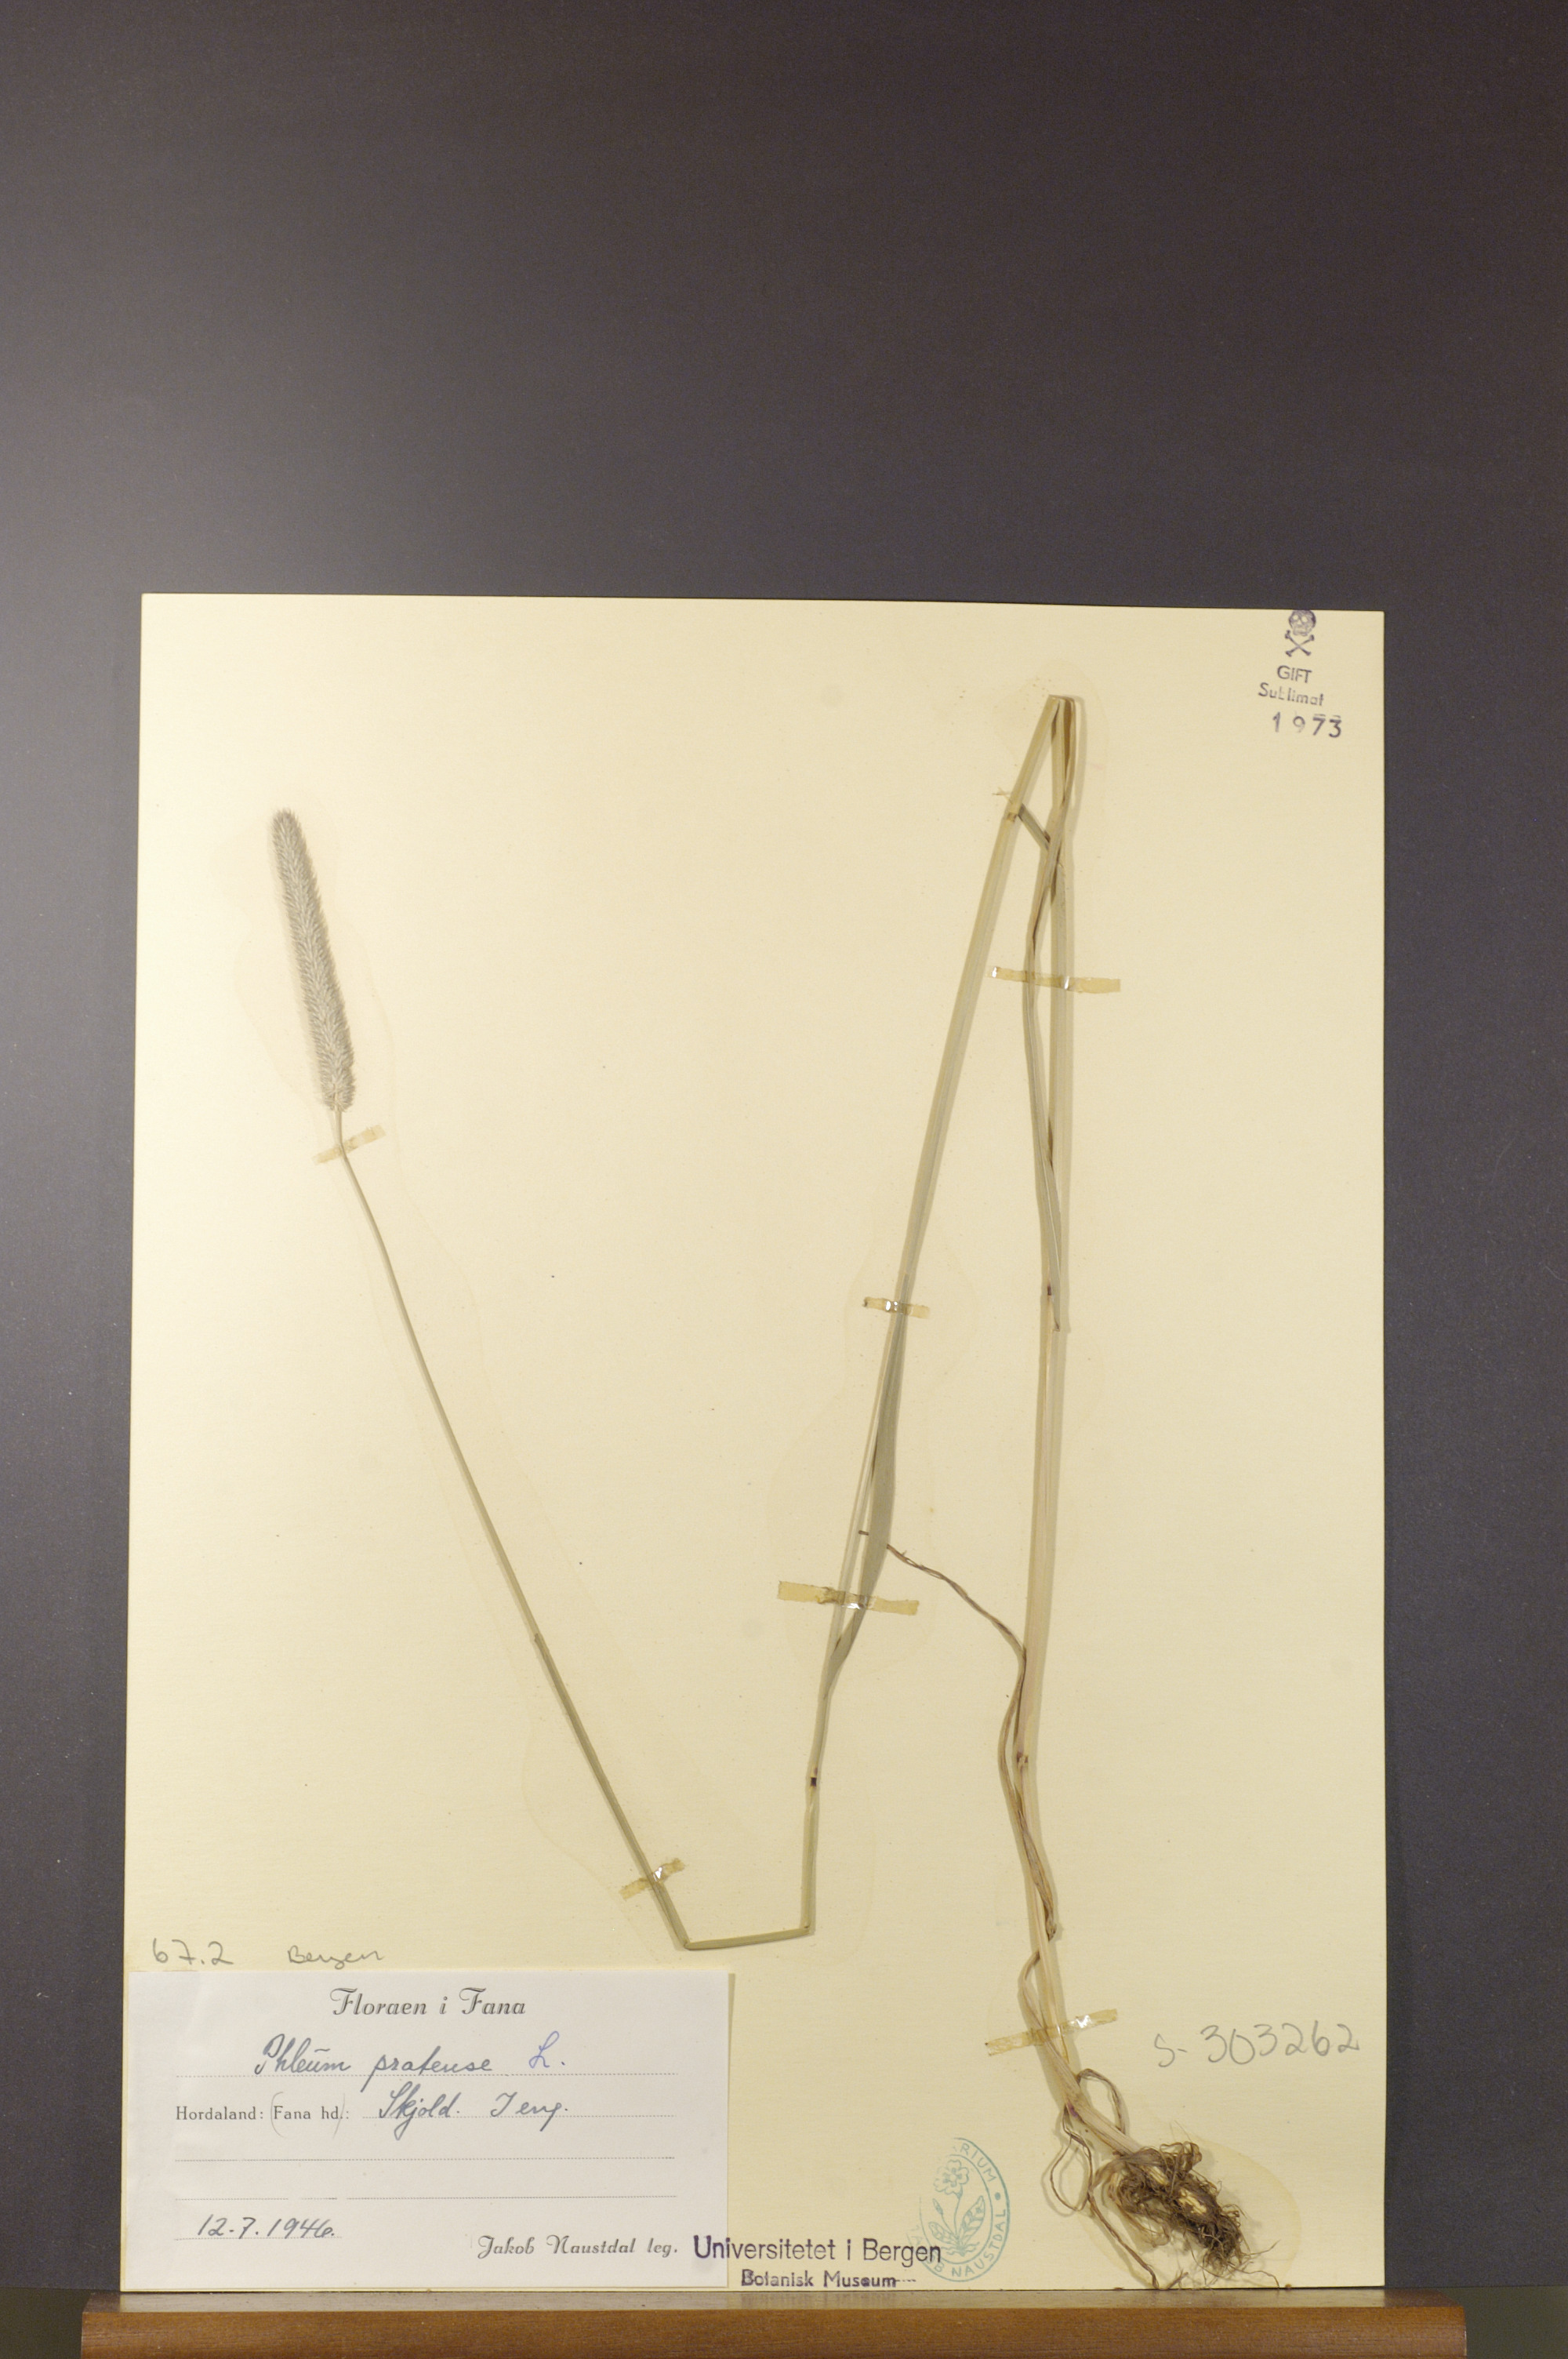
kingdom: Plantae
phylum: Tracheophyta
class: Liliopsida
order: Poales
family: Poaceae
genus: Phleum
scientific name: Phleum bertolonii
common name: Smaller cat's-tail
